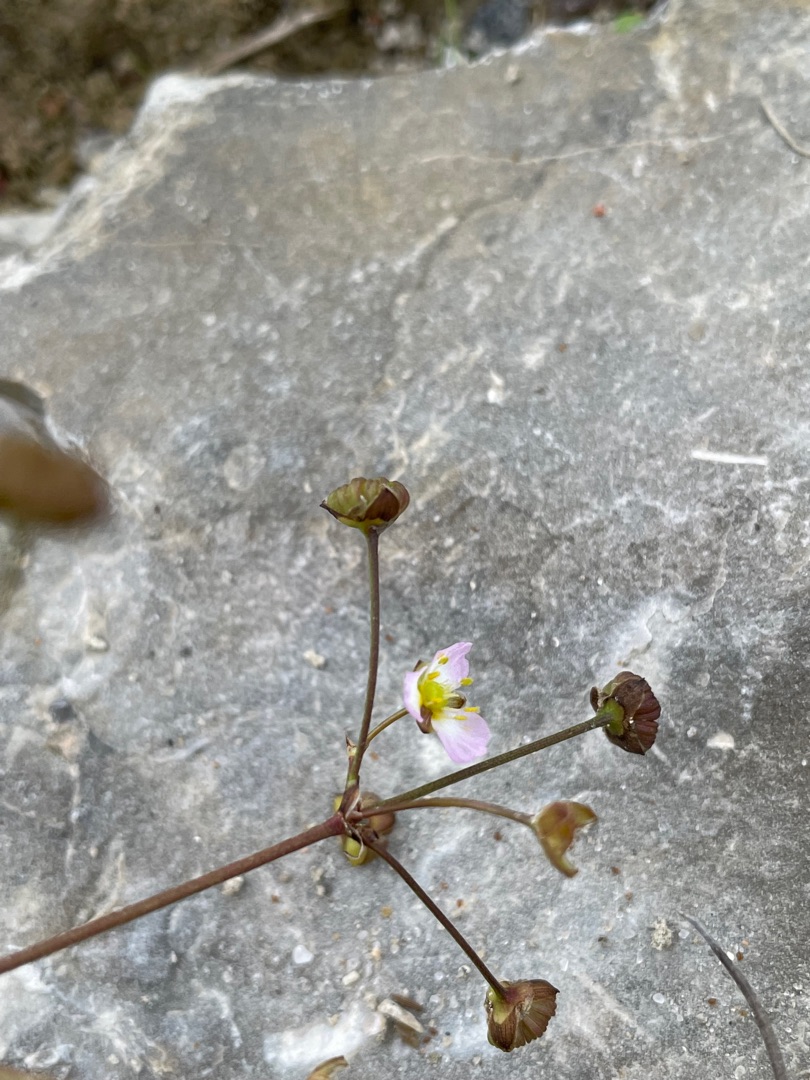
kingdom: Plantae
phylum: Tracheophyta
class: Liliopsida
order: Alismatales
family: Alismataceae
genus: Alisma
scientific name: Alisma plantago-aquatica
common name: Vejbred-skeblad
